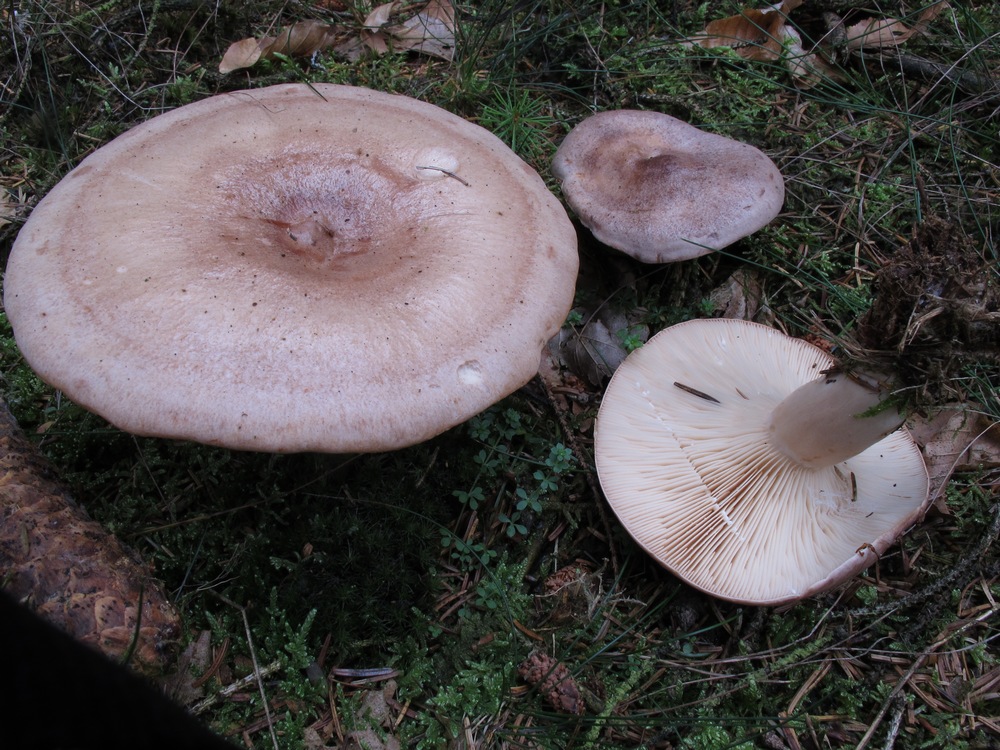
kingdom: Fungi
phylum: Basidiomycota
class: Agaricomycetes
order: Russulales
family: Russulaceae
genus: Lactarius
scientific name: Lactarius trivialis
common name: nordisk mælkehat
